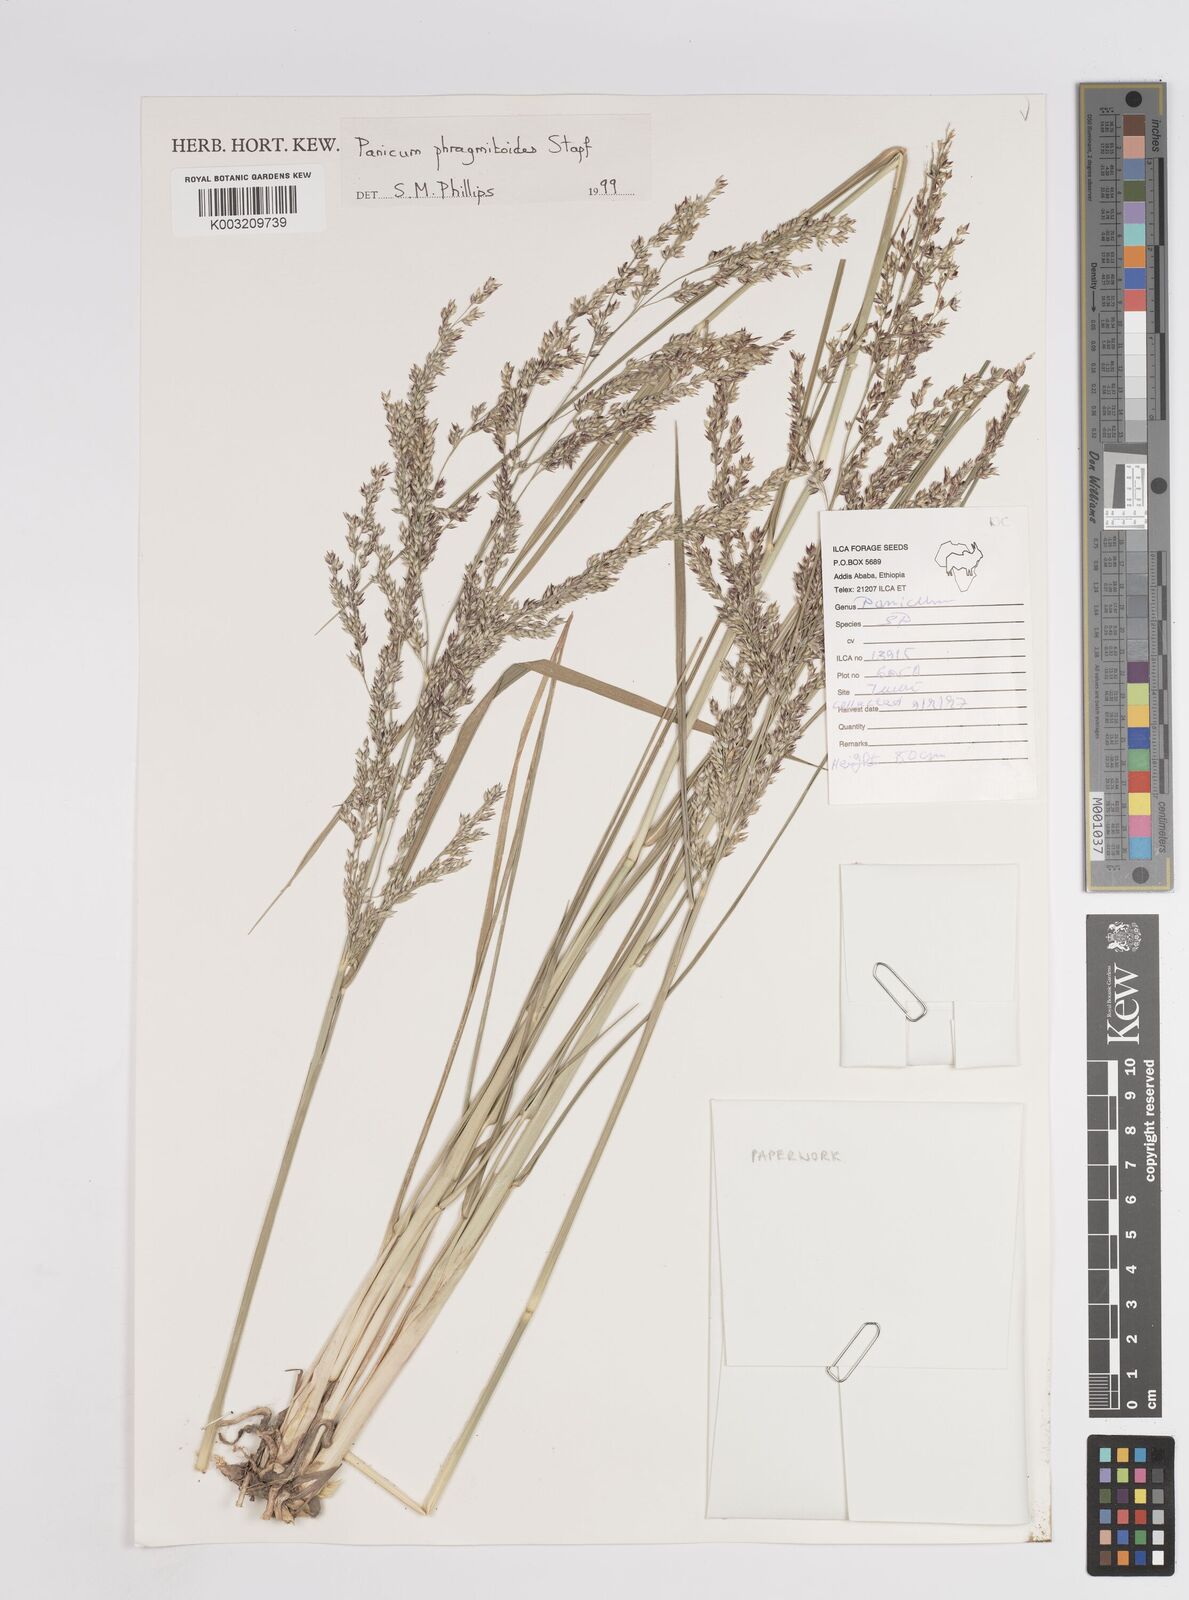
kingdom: Plantae
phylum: Tracheophyta
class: Liliopsida
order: Poales
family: Poaceae
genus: Panicum
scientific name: Panicum
